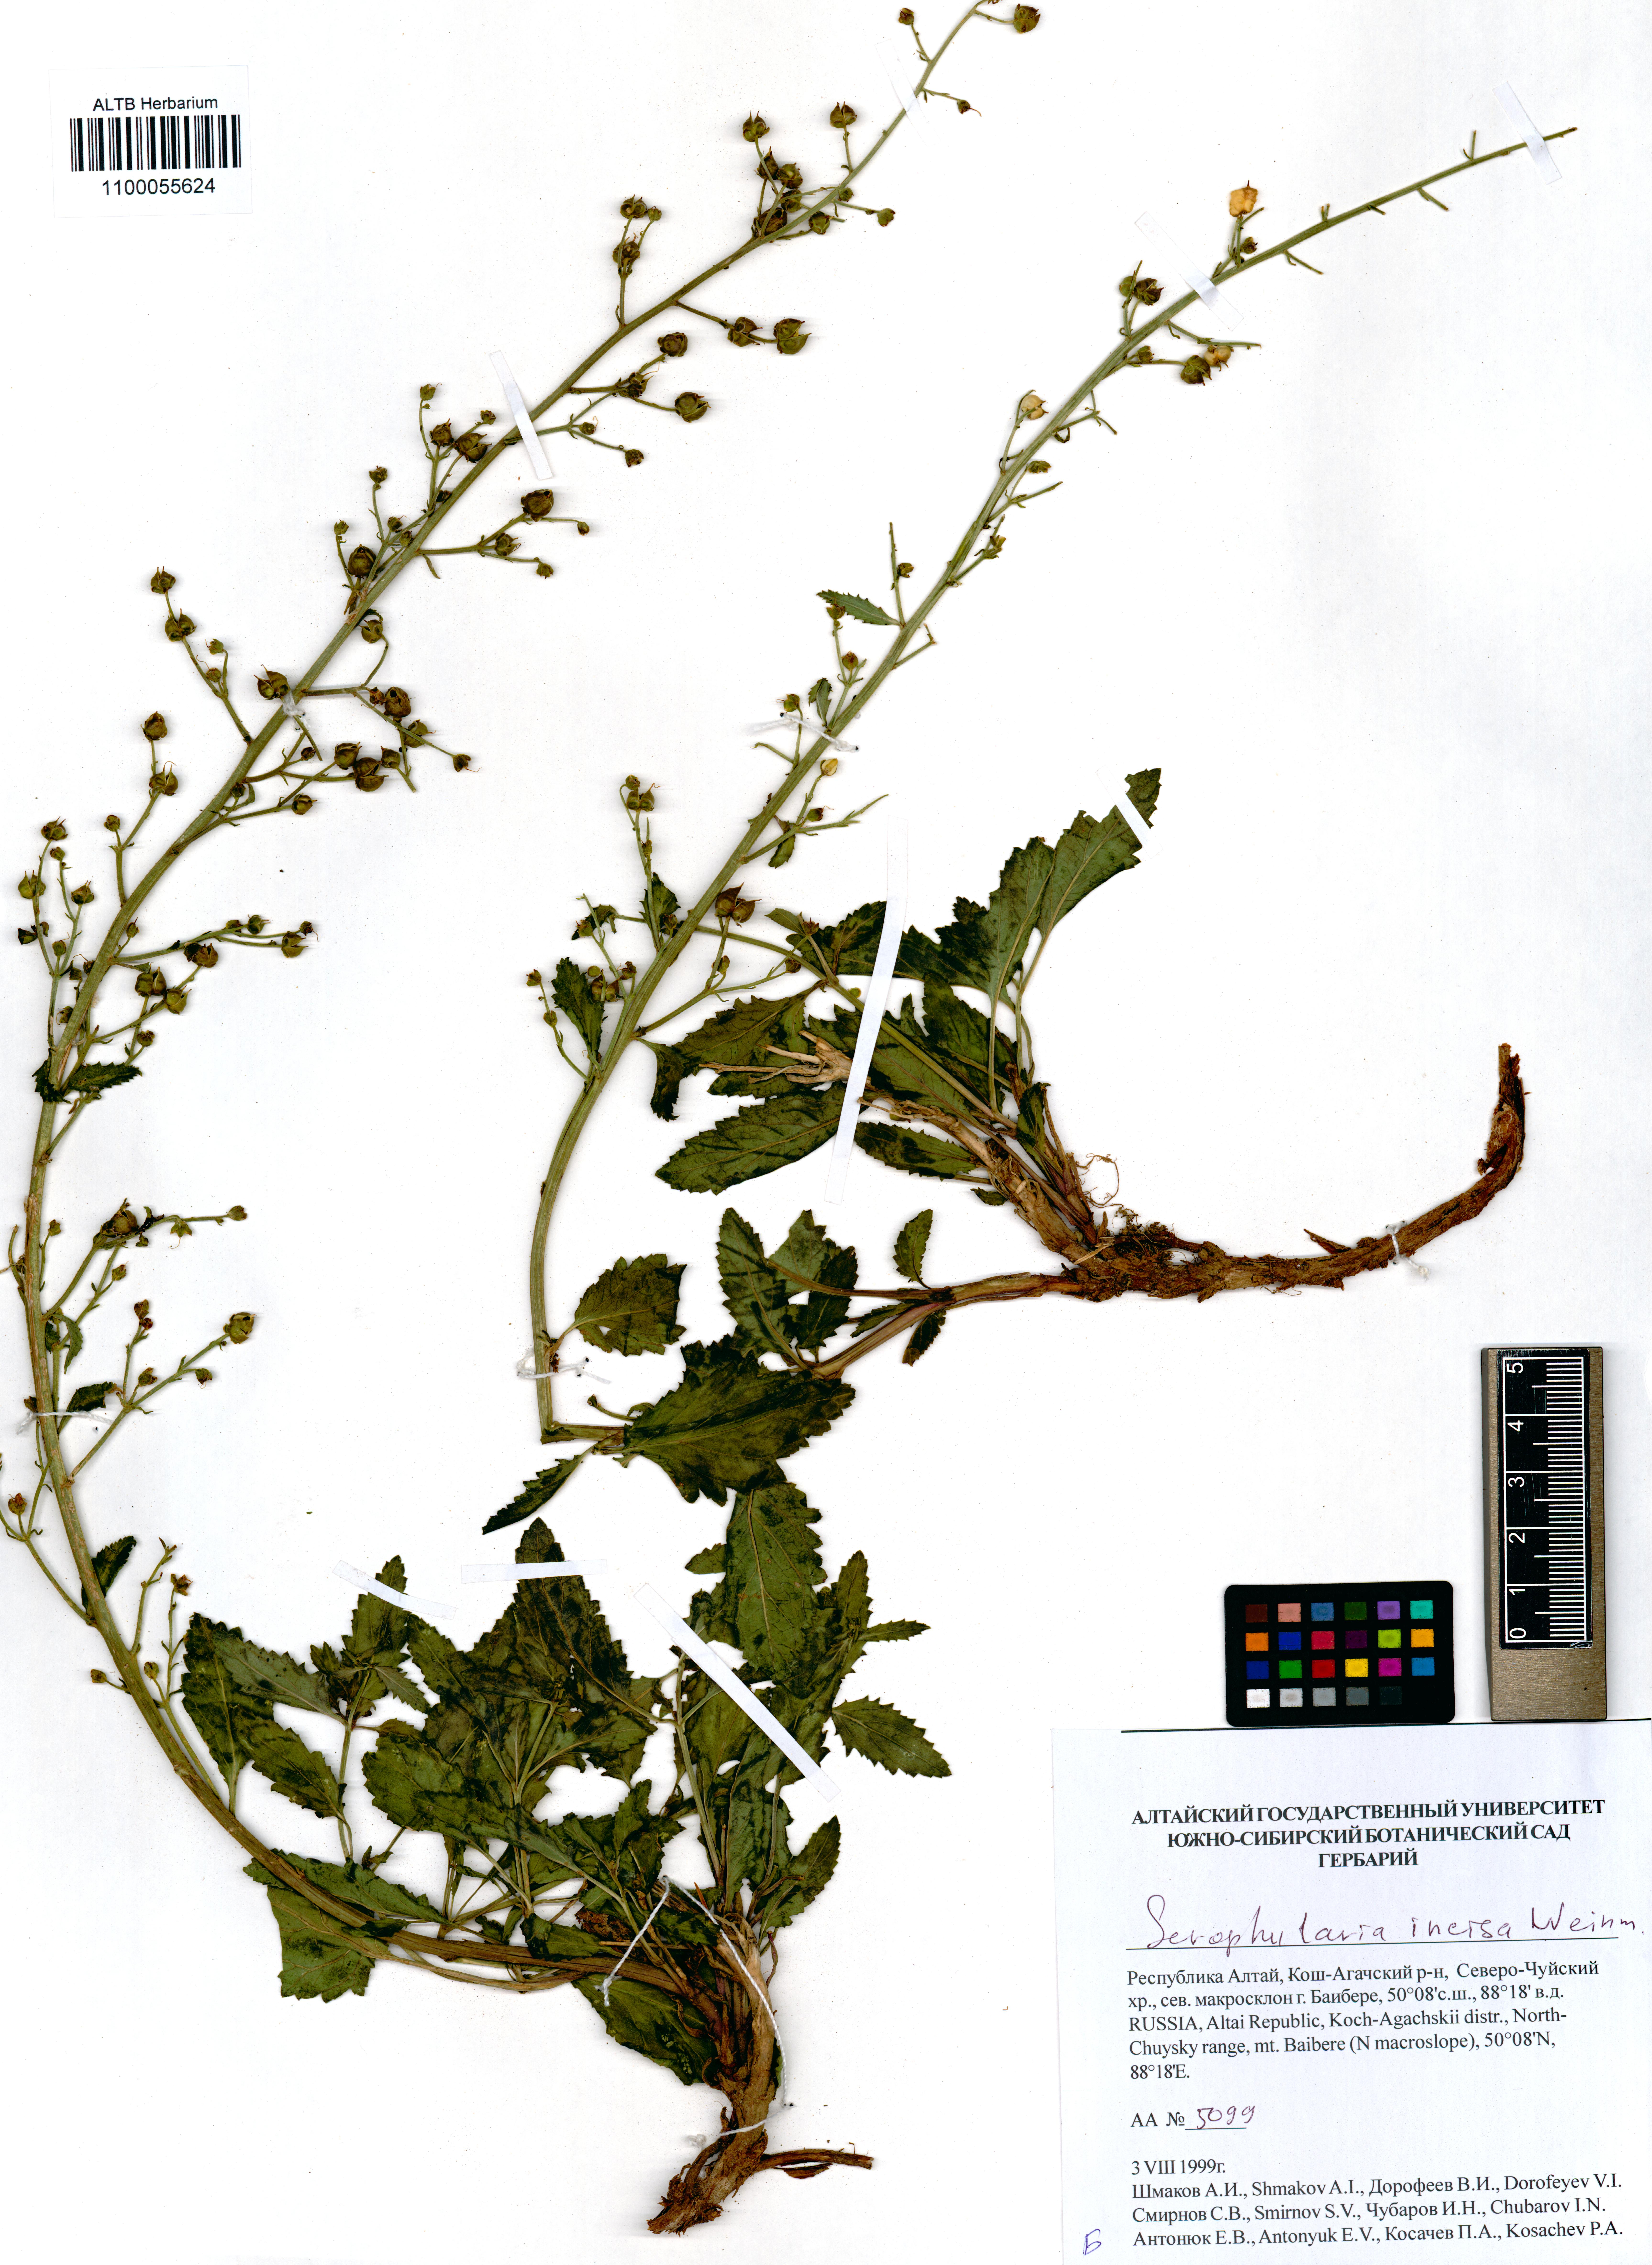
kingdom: Plantae
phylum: Tracheophyta
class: Magnoliopsida
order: Lamiales
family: Scrophulariaceae
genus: Scrophularia
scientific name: Scrophularia incisa
